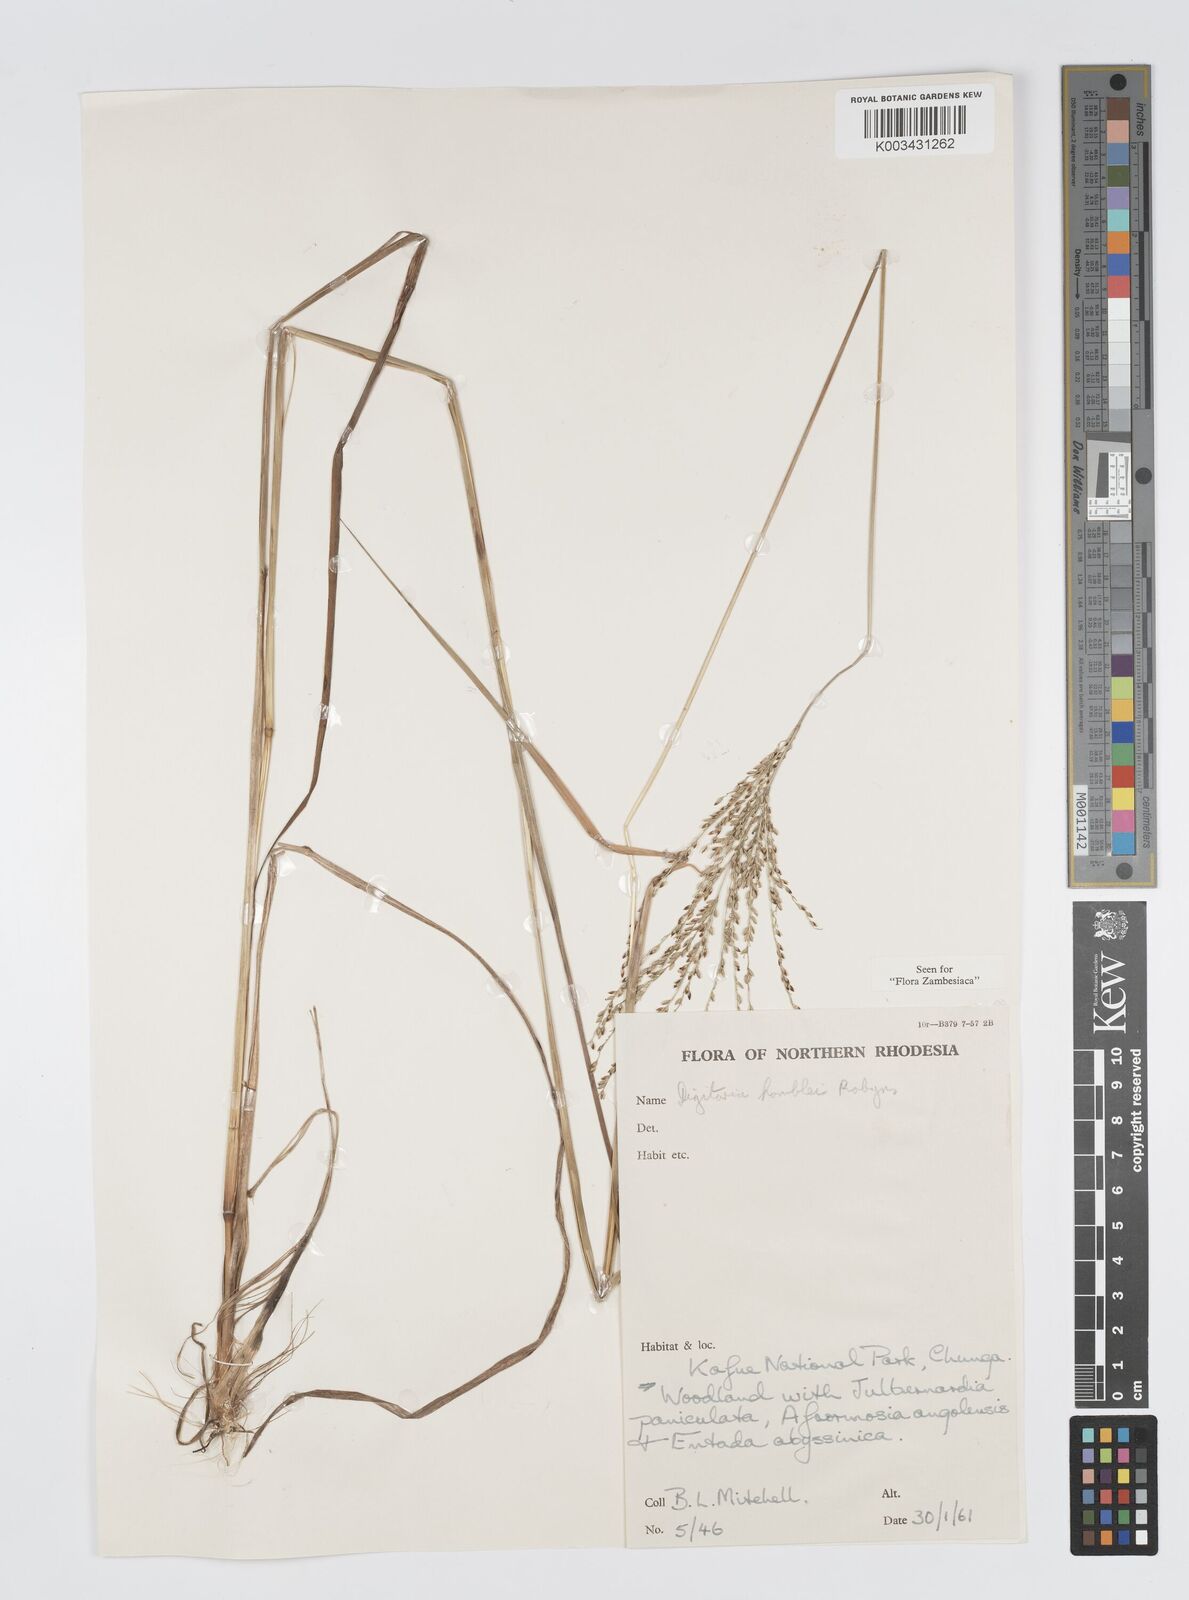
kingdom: Plantae
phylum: Tracheophyta
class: Liliopsida
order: Poales
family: Poaceae
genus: Digitaria
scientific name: Digitaria compressa
